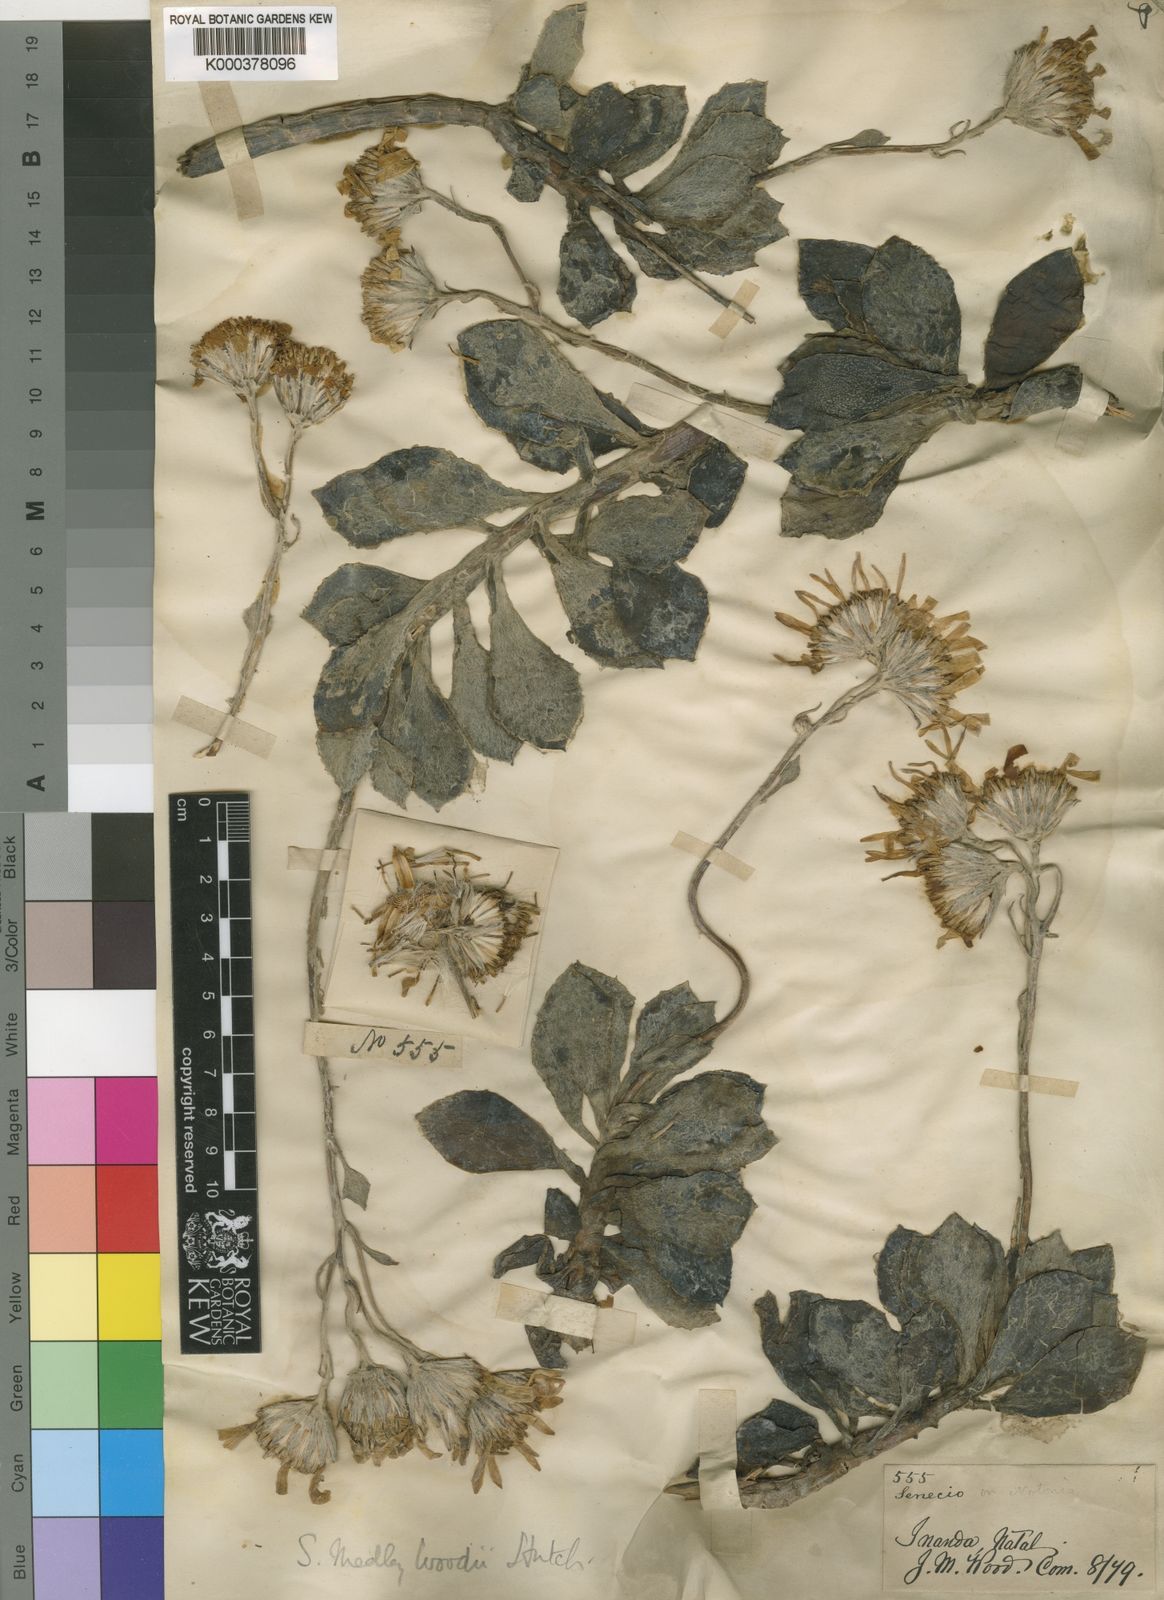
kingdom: Plantae
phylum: Tracheophyta
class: Magnoliopsida
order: Asterales
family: Asteraceae
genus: Caputia
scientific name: Caputia medley-woodii
